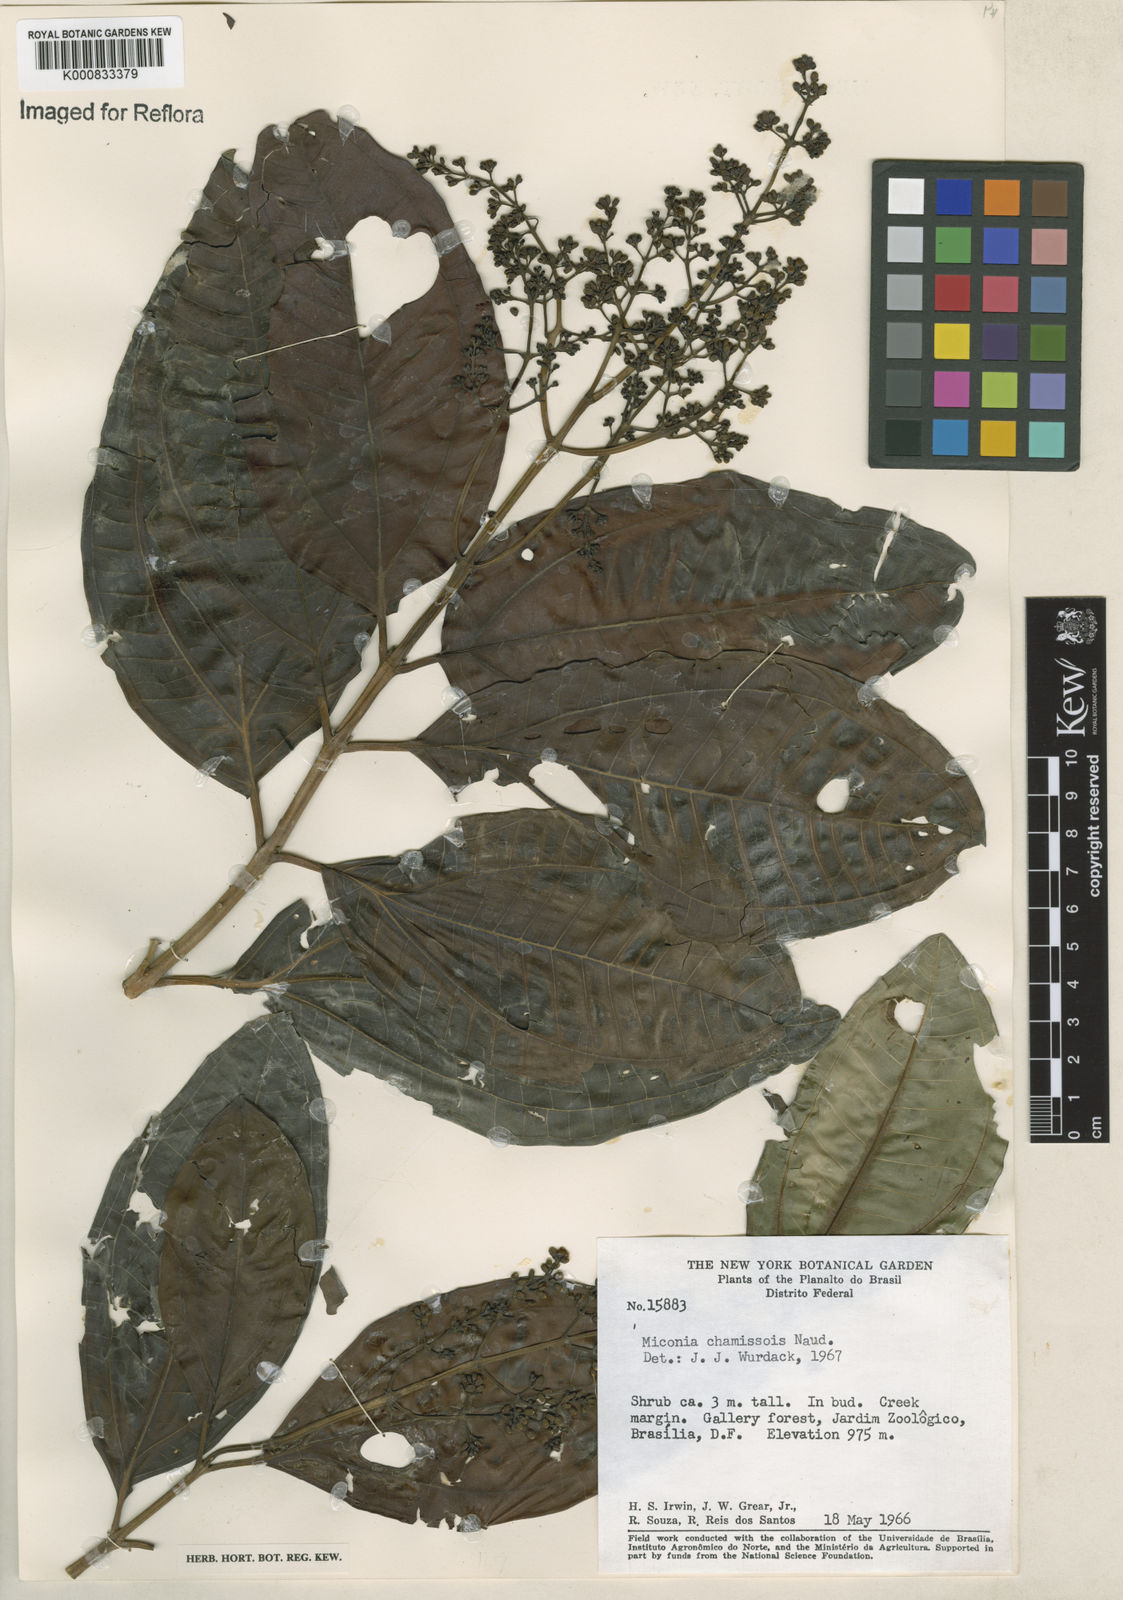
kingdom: Plantae
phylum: Tracheophyta
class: Magnoliopsida
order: Myrtales
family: Melastomataceae
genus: Miconia
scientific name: Miconia chamissois
